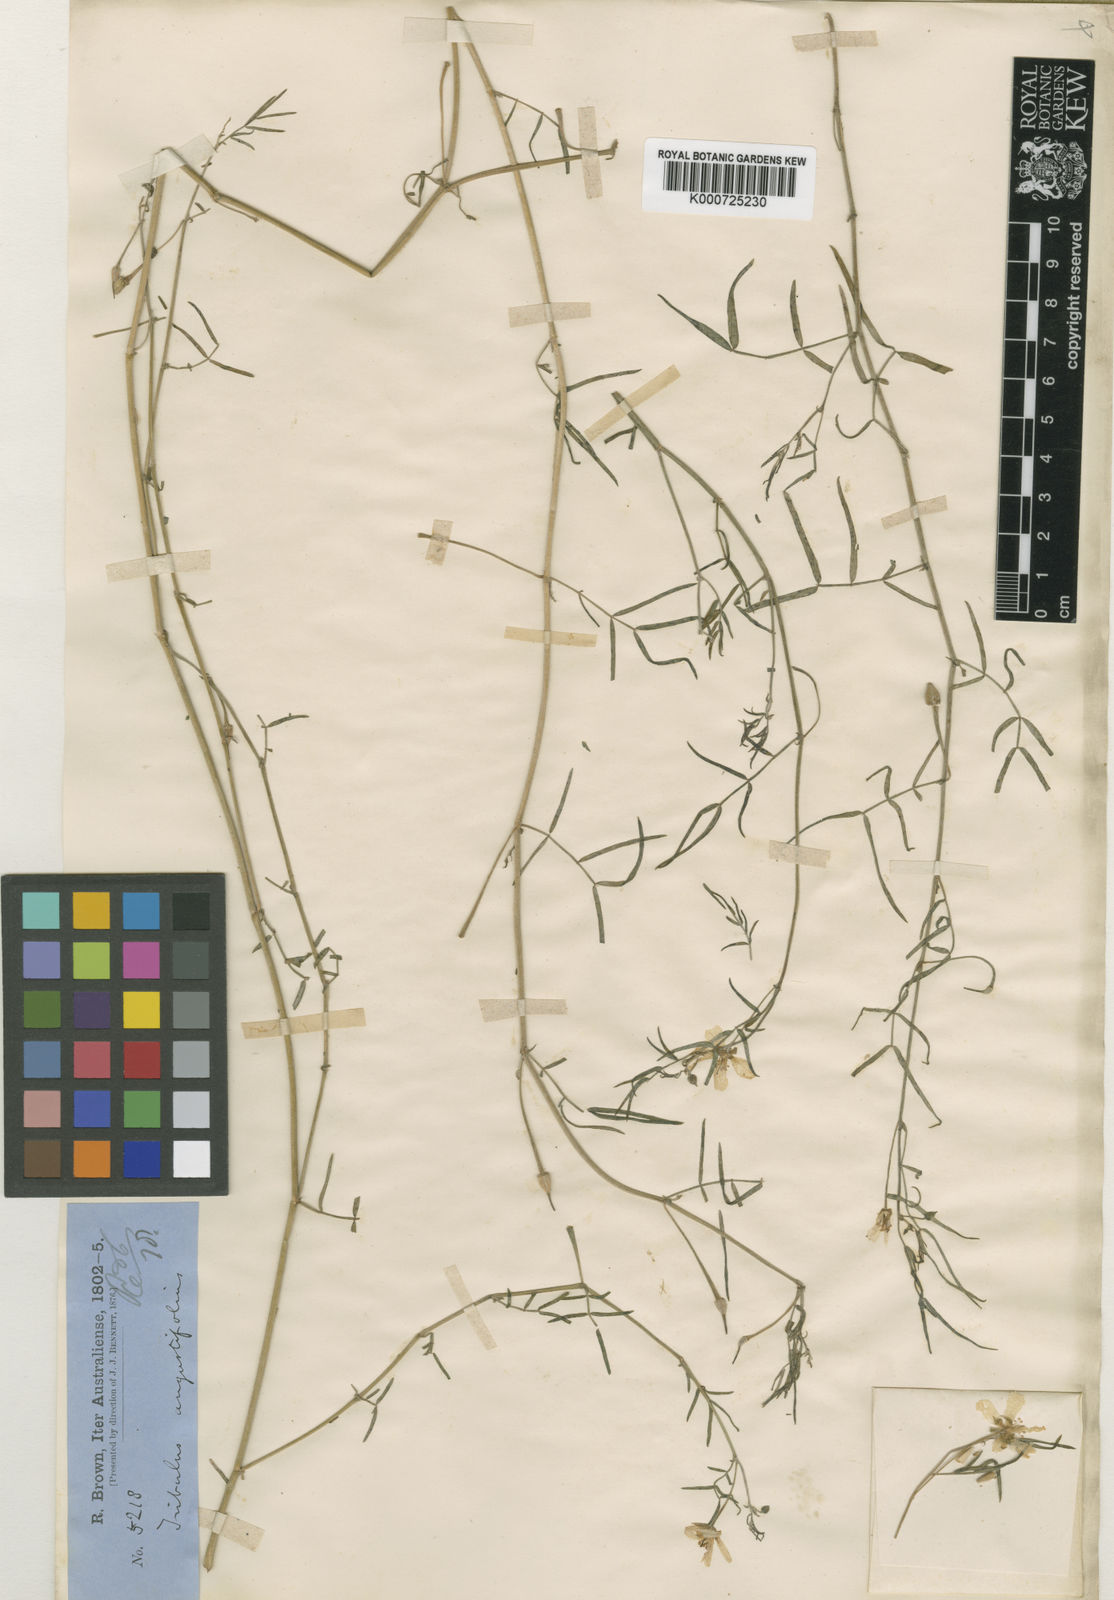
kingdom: Plantae
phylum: Tracheophyta
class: Magnoliopsida
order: Zygophyllales
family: Zygophyllaceae
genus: Tribulopis
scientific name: Tribulopis angustifolia
